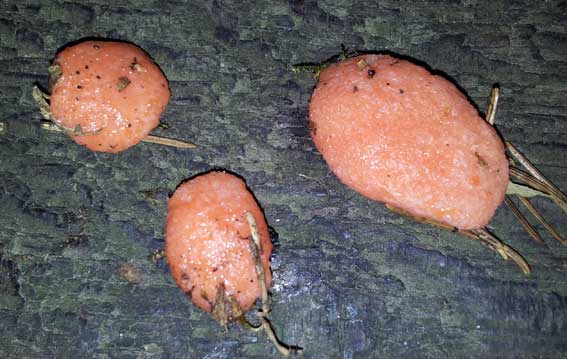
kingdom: Protozoa
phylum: Mycetozoa
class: Myxomycetes
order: Cribrariales
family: Tubiferaceae
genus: Tubifera
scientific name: Tubifera ferruginosa
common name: kanel-støvrør
